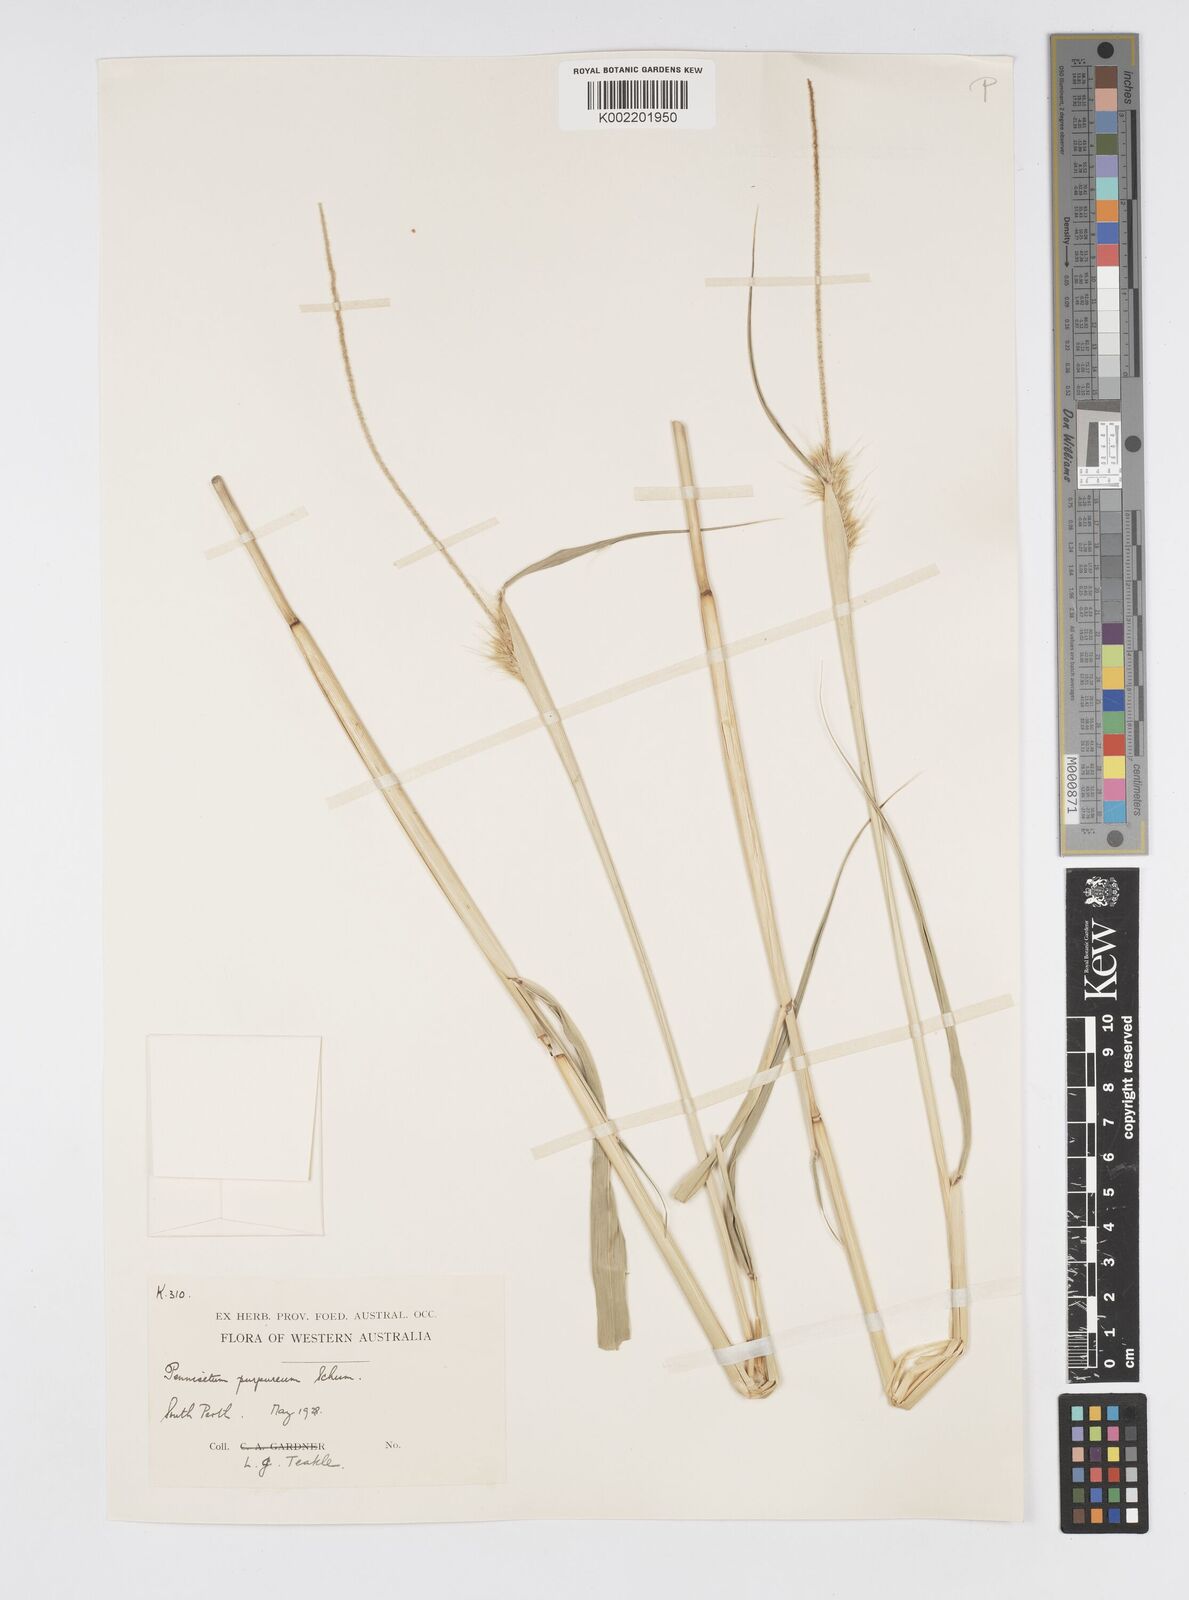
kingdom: Plantae
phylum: Tracheophyta
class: Liliopsida
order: Poales
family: Poaceae
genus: Cenchrus
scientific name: Cenchrus purpureus
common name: Elephant grass
